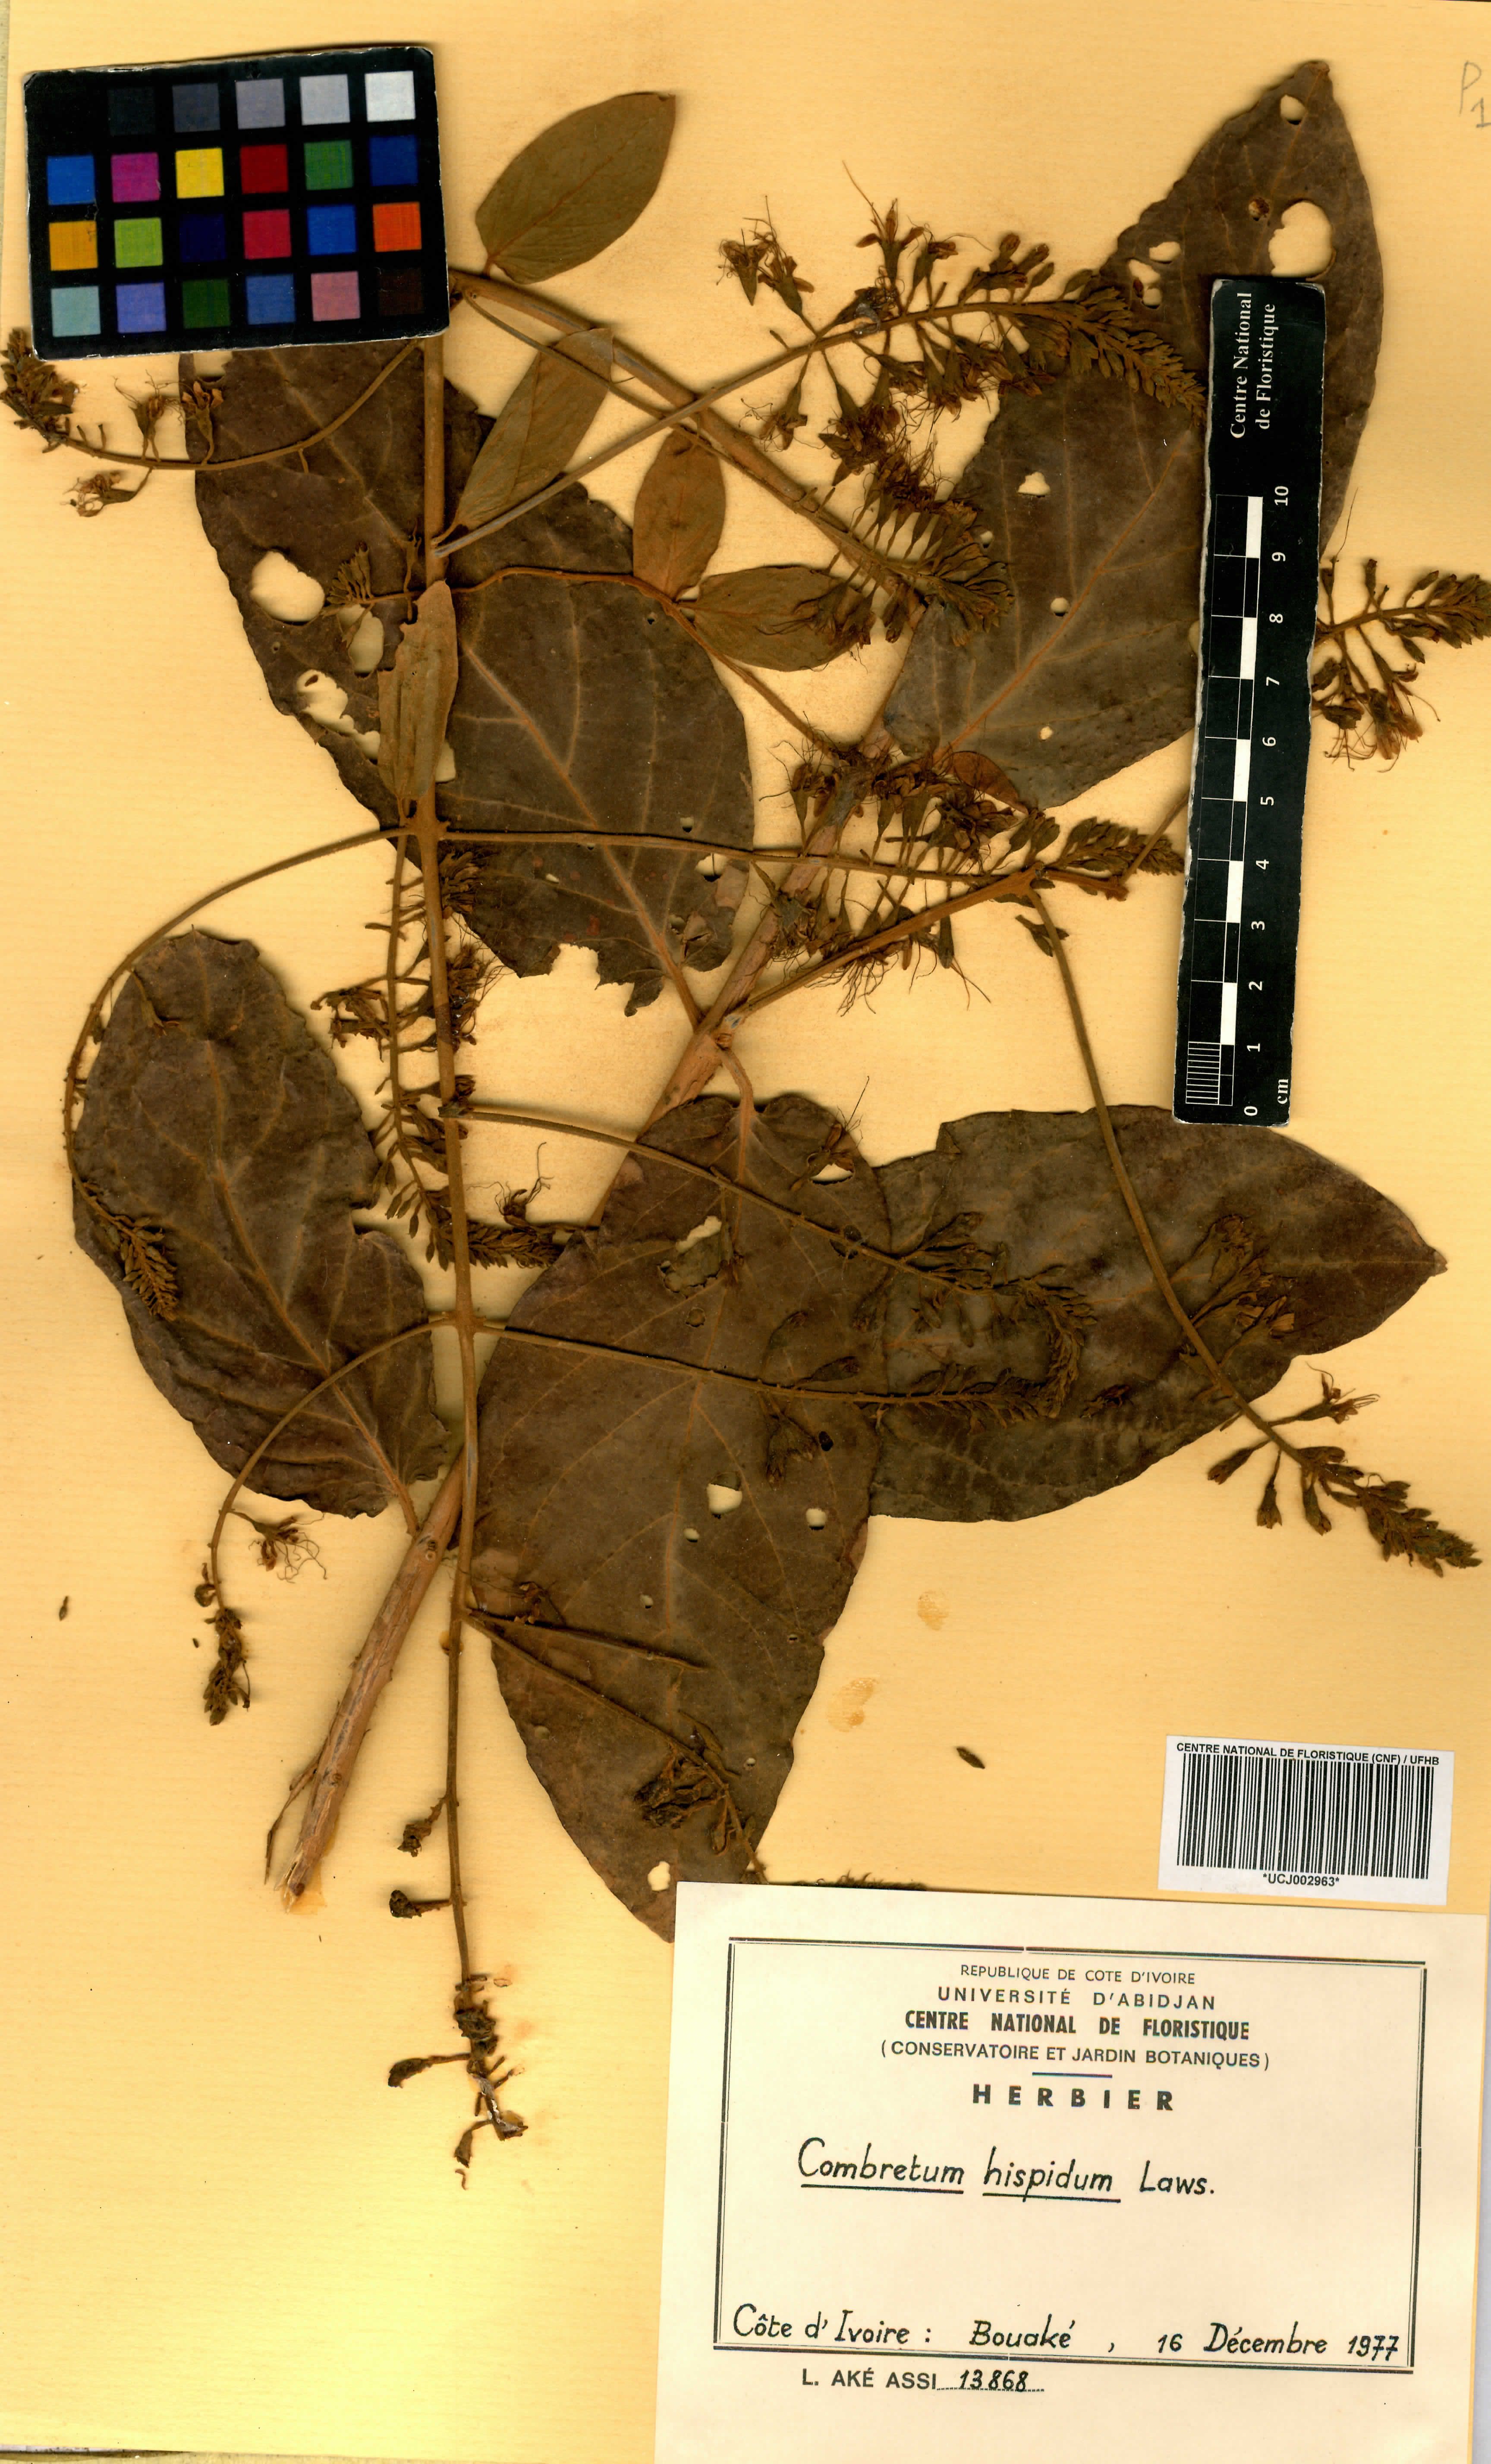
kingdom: Plantae
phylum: Tracheophyta
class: Magnoliopsida
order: Myrtales
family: Combretaceae
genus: Combretum
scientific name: Combretum comosum
